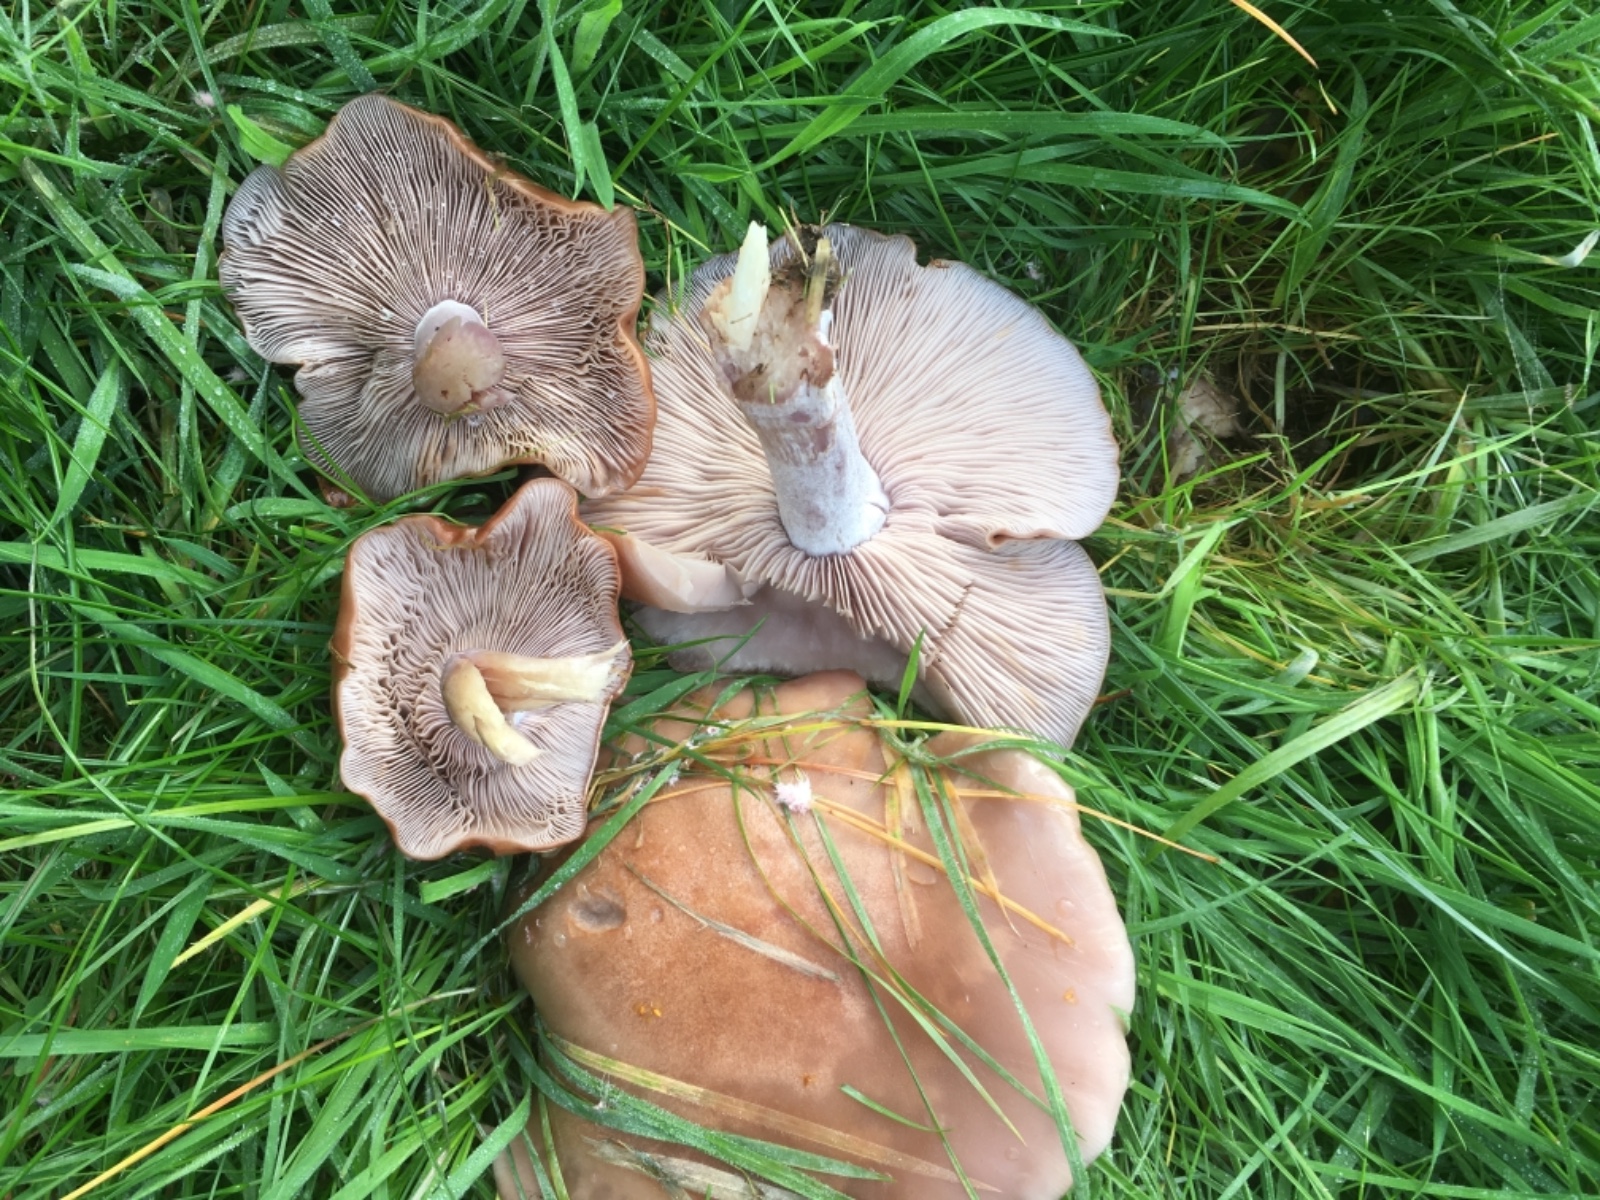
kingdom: Fungi
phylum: Basidiomycota
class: Agaricomycetes
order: Agaricales
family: Tricholomataceae
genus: Lepista
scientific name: Lepista nuda
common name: violet hekseringshat
